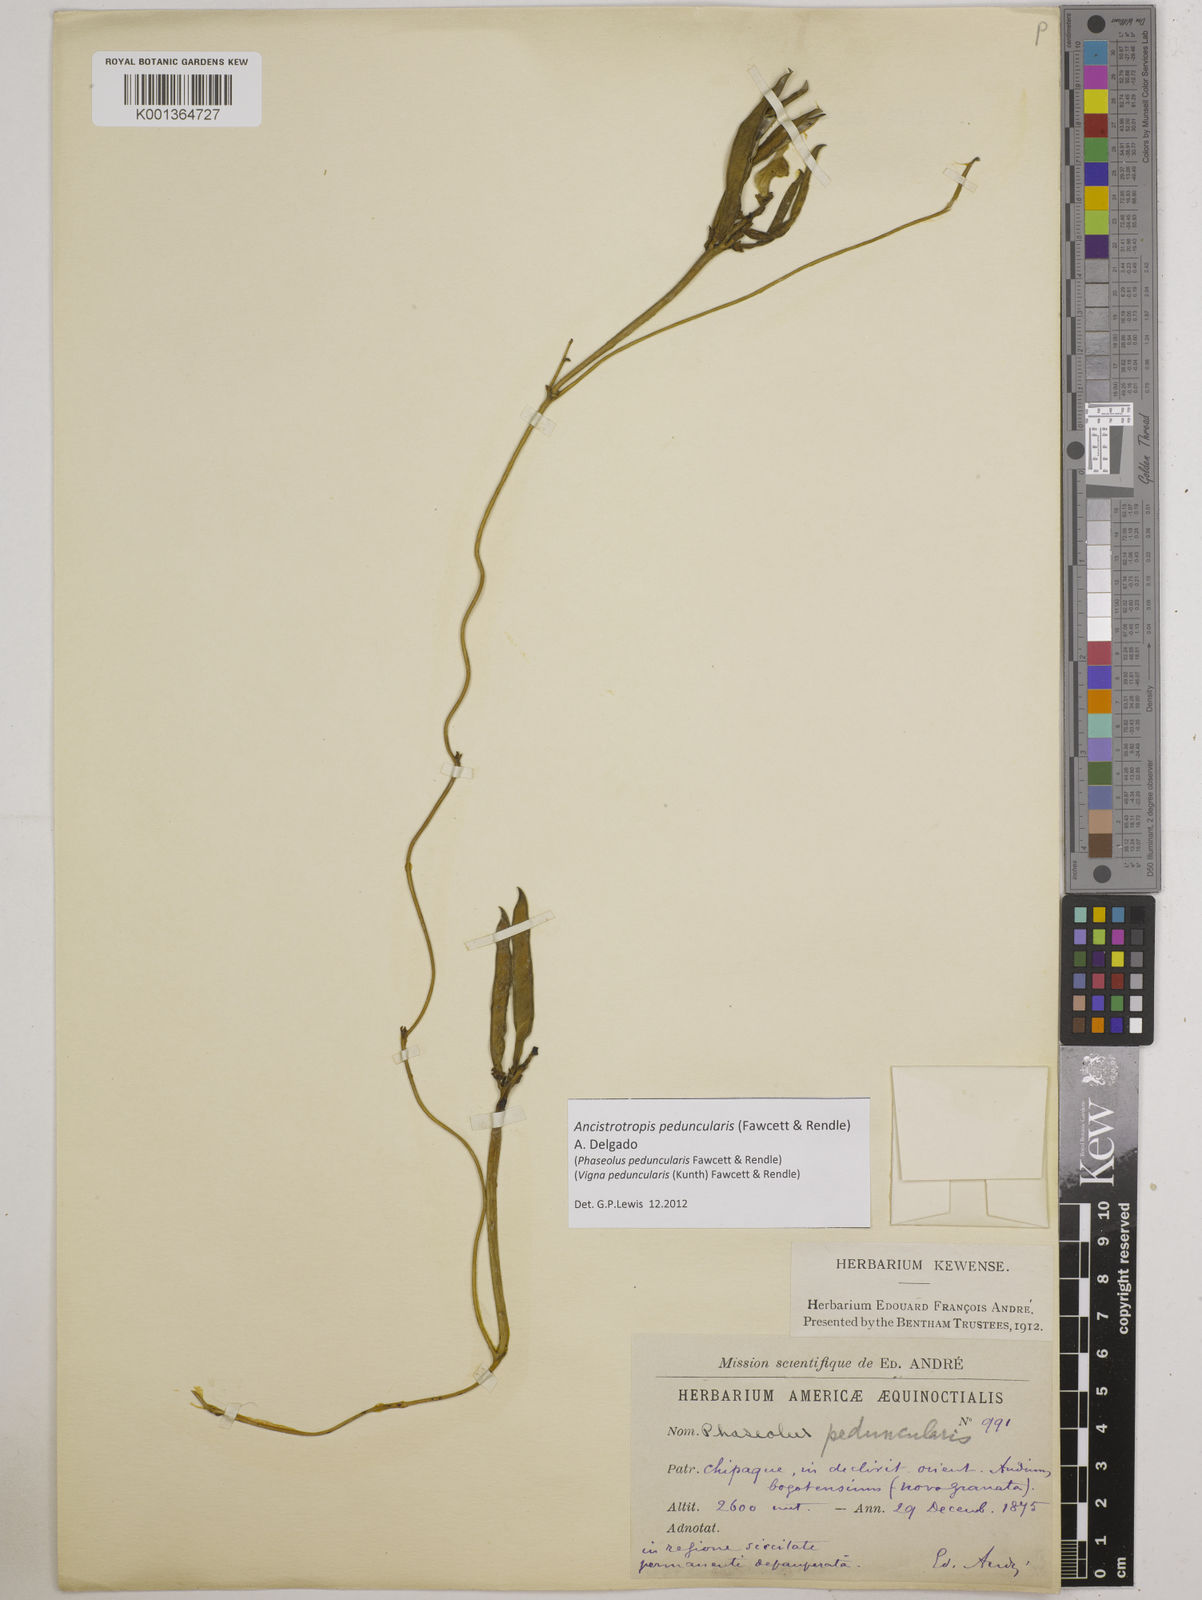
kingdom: Plantae
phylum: Tracheophyta
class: Magnoliopsida
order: Fabales
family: Fabaceae
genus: Ancistrotropis
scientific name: Ancistrotropis peduncularis
